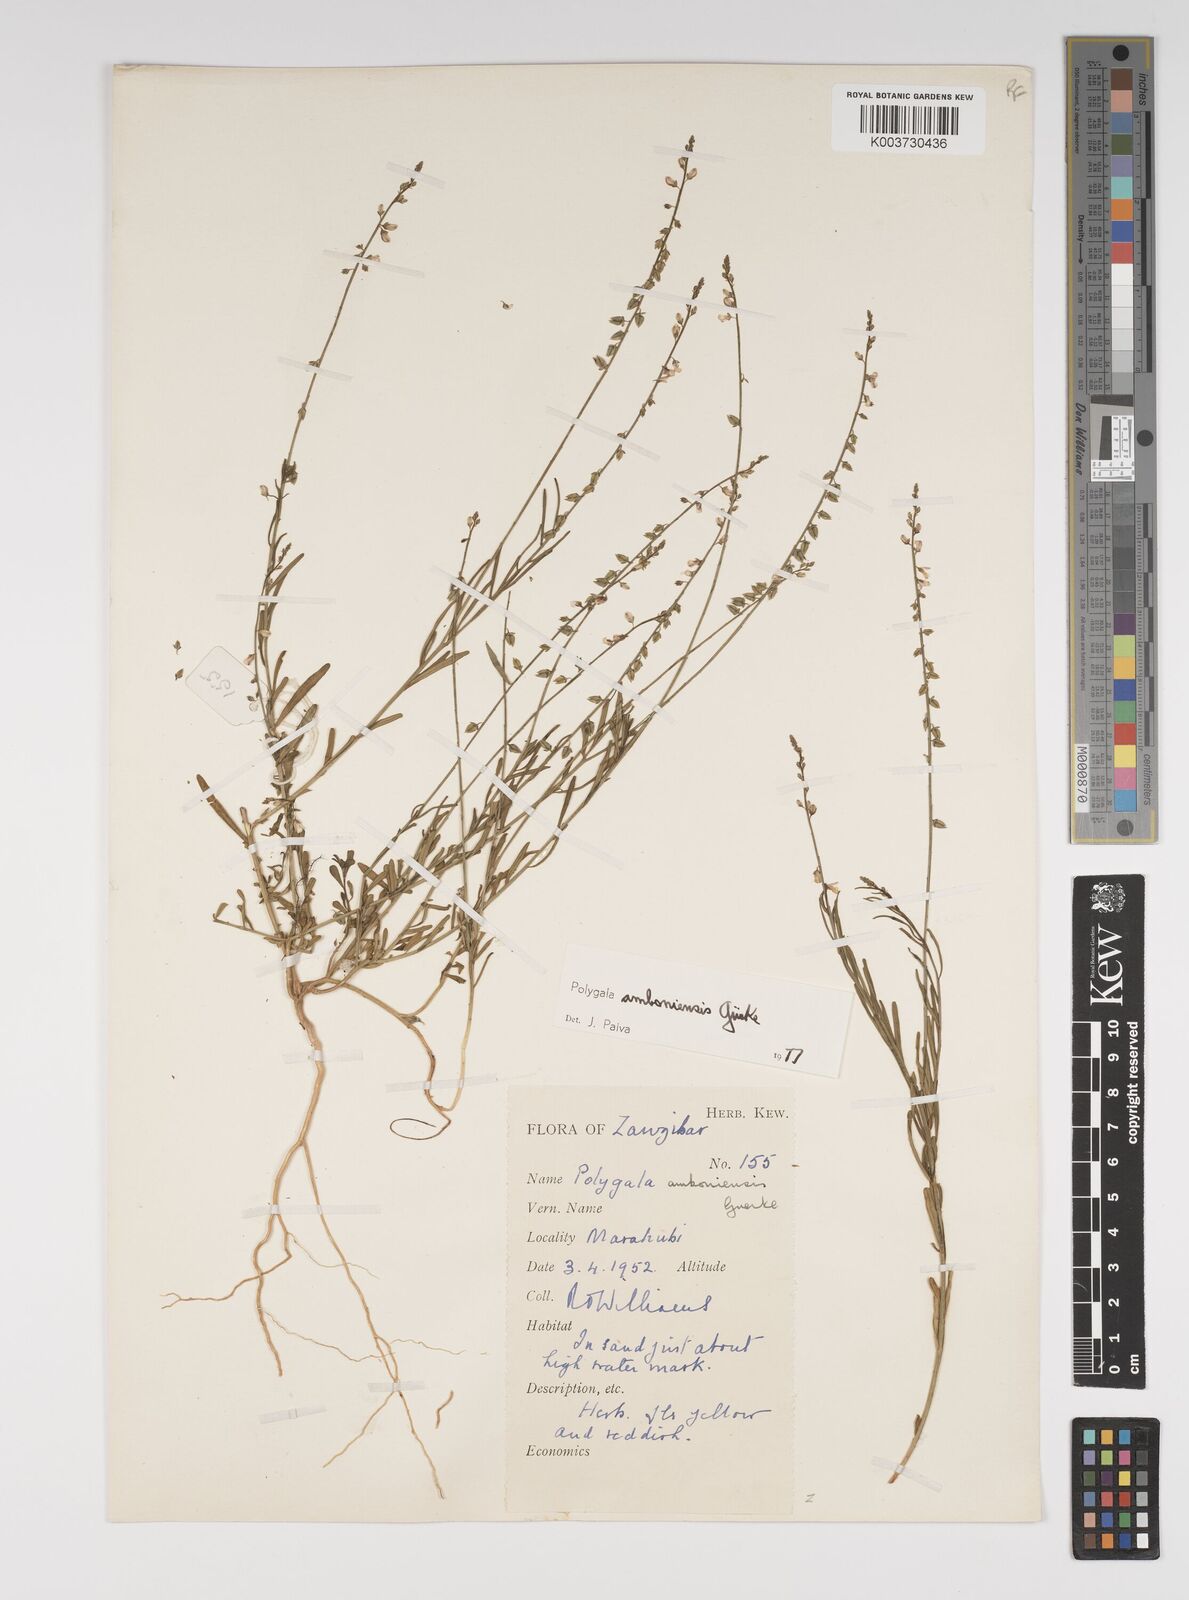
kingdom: Plantae
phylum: Tracheophyta
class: Magnoliopsida
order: Fabales
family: Polygalaceae
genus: Polygala
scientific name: Polygala amboniensis
